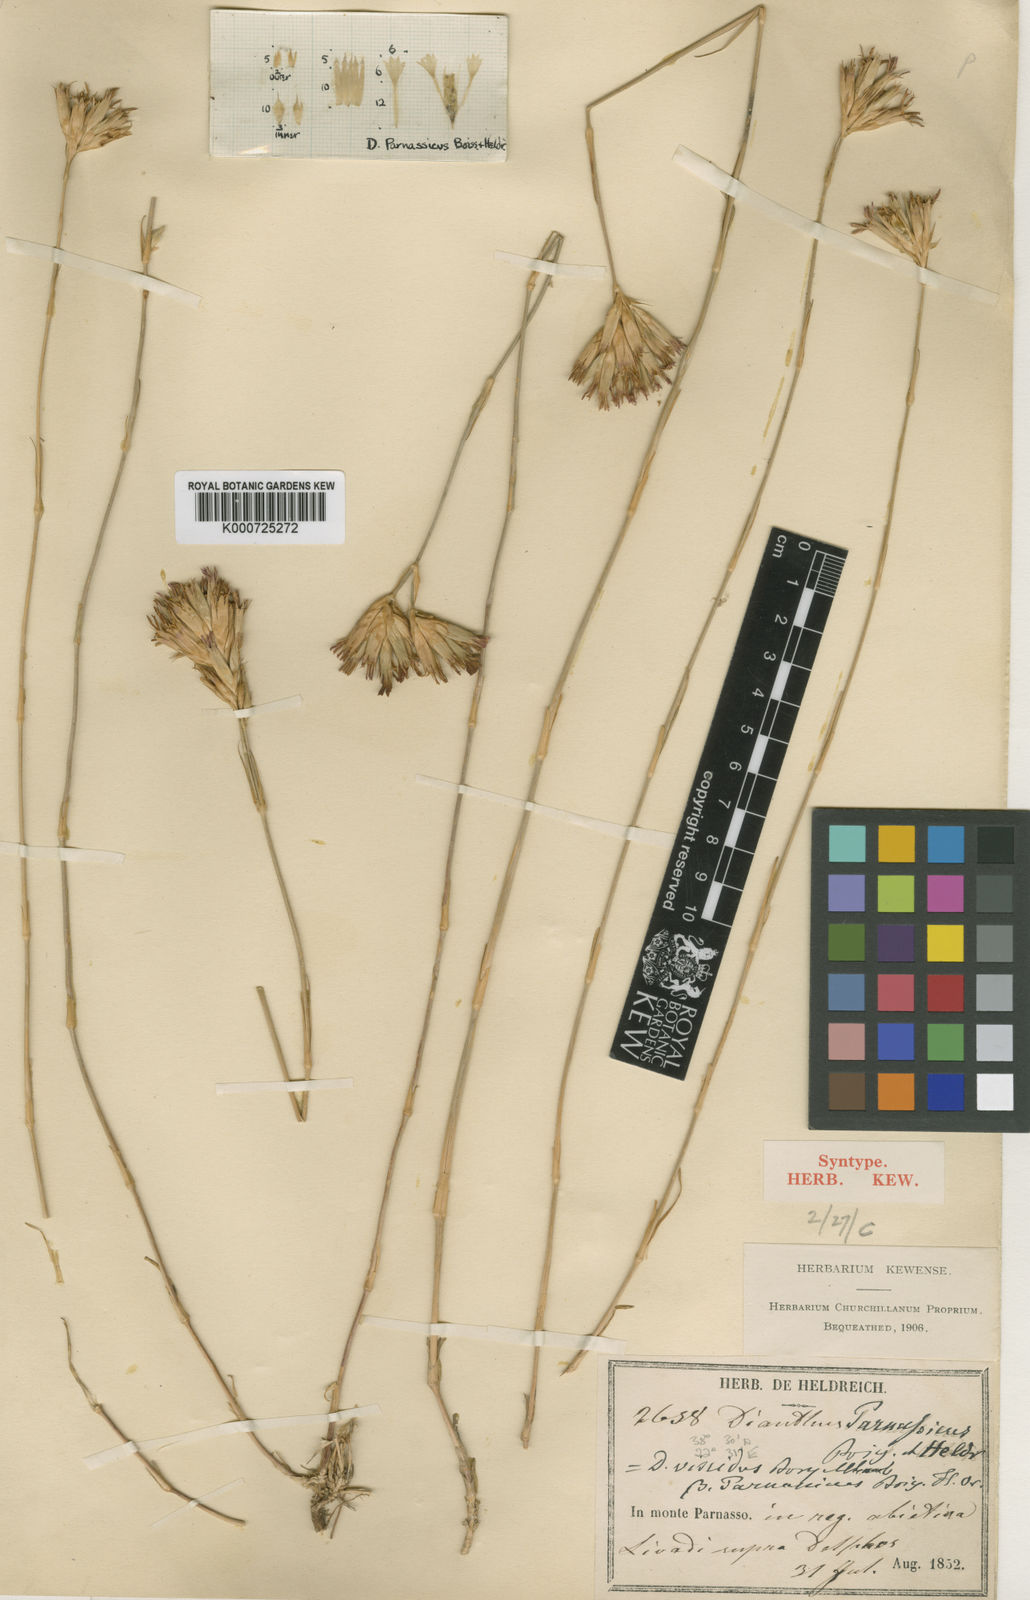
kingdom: Plantae
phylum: Tracheophyta
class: Magnoliopsida
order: Caryophyllales
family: Caryophyllaceae
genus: Dianthus
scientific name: Dianthus viscidus
